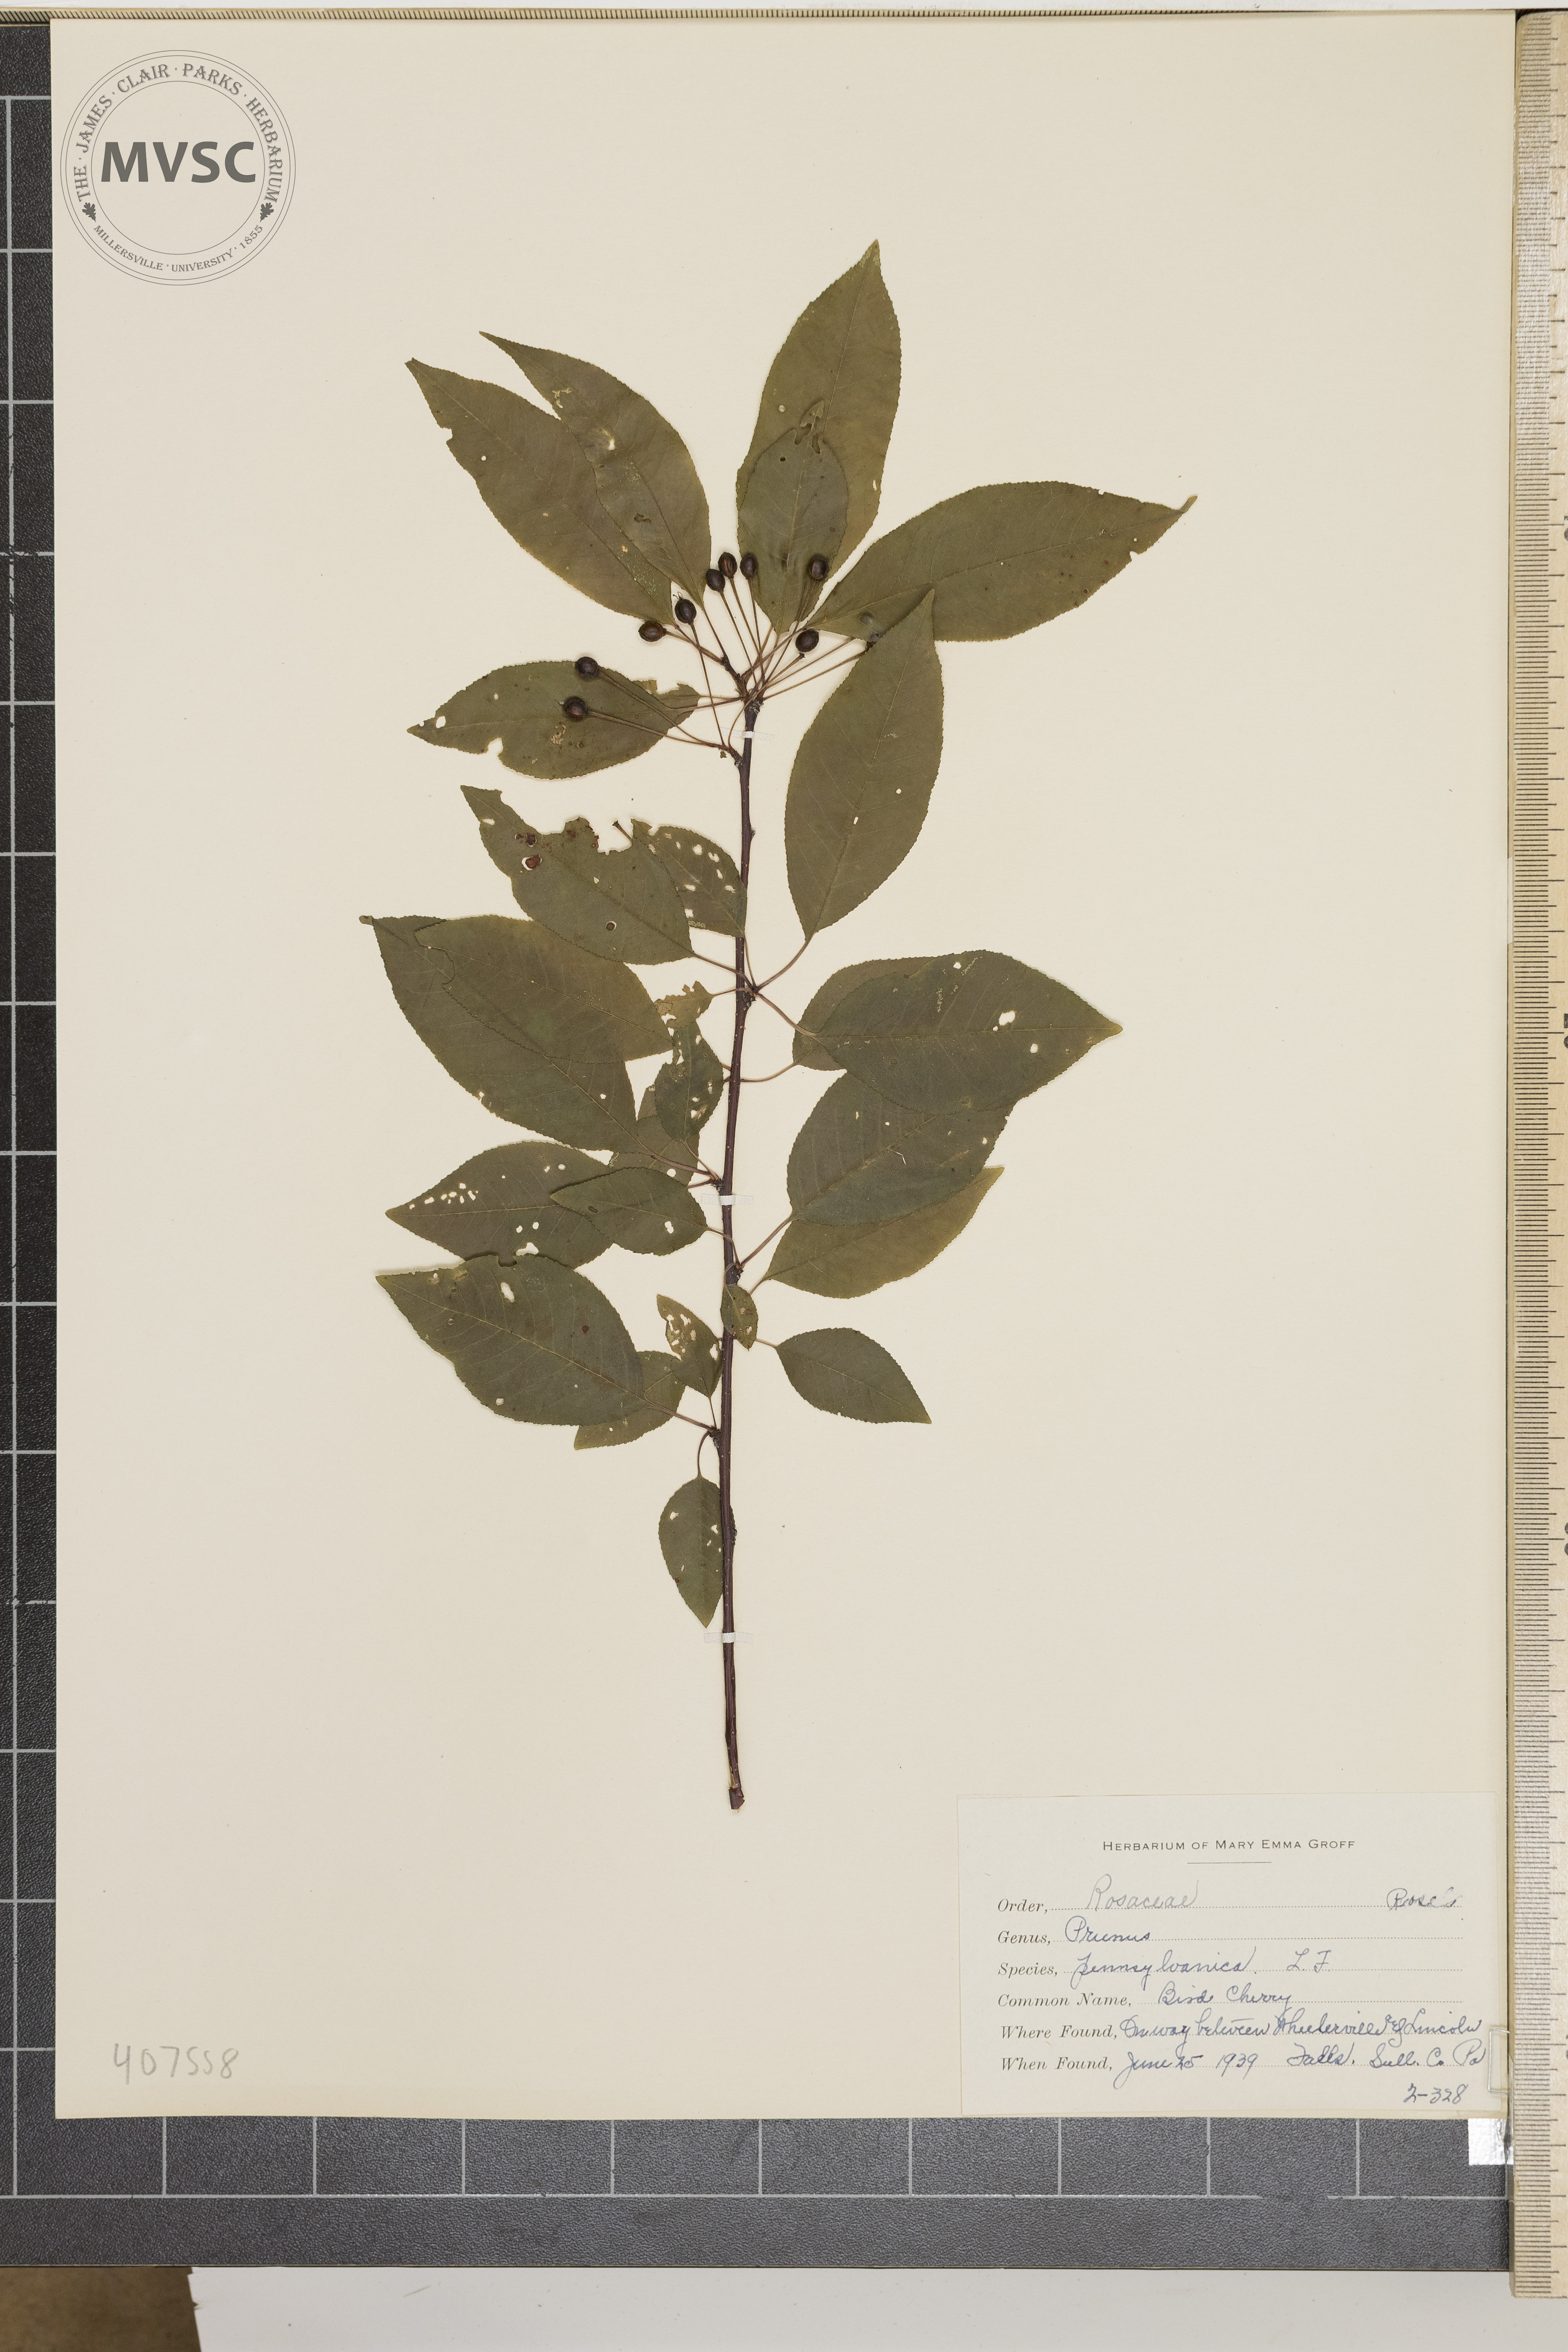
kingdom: Plantae
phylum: Tracheophyta
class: Magnoliopsida
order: Rosales
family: Rosaceae
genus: Prunus
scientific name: Prunus pensylvanica
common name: bird cherry
